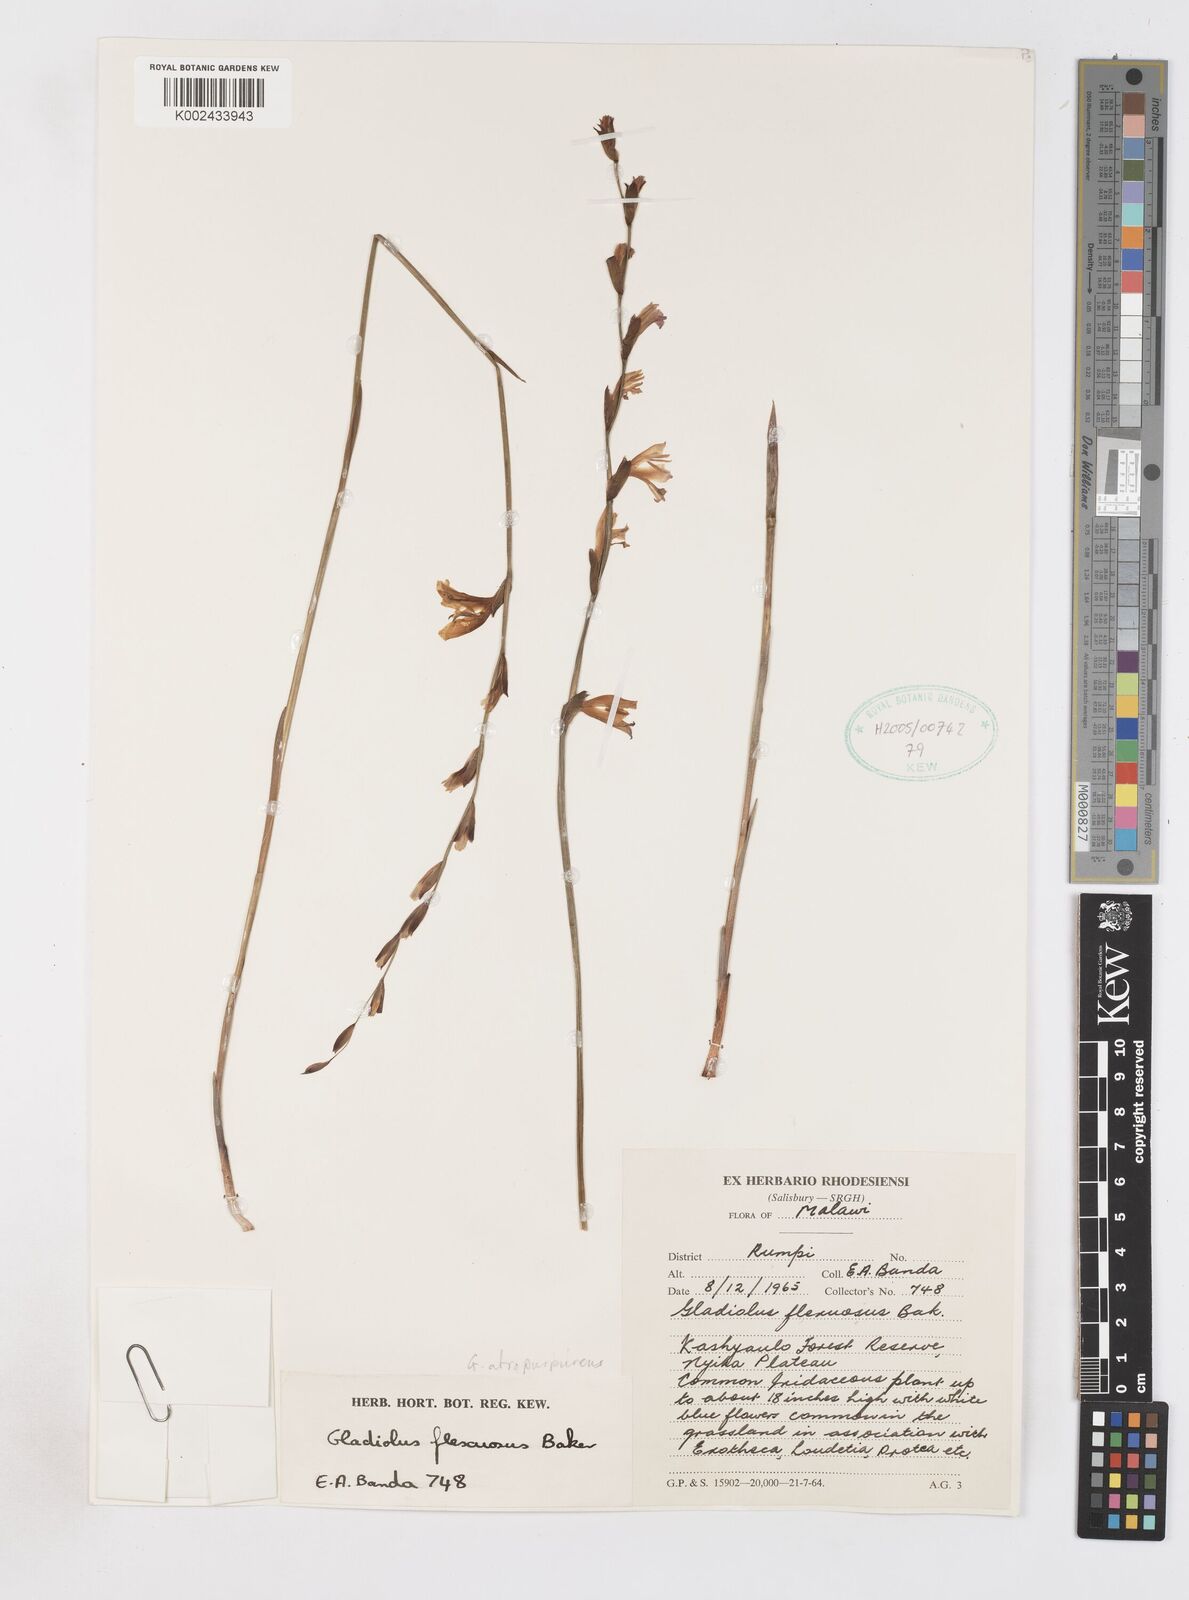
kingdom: Plantae
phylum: Tracheophyta
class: Liliopsida
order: Asparagales
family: Iridaceae
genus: Gladiolus
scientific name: Gladiolus atropurpureus
